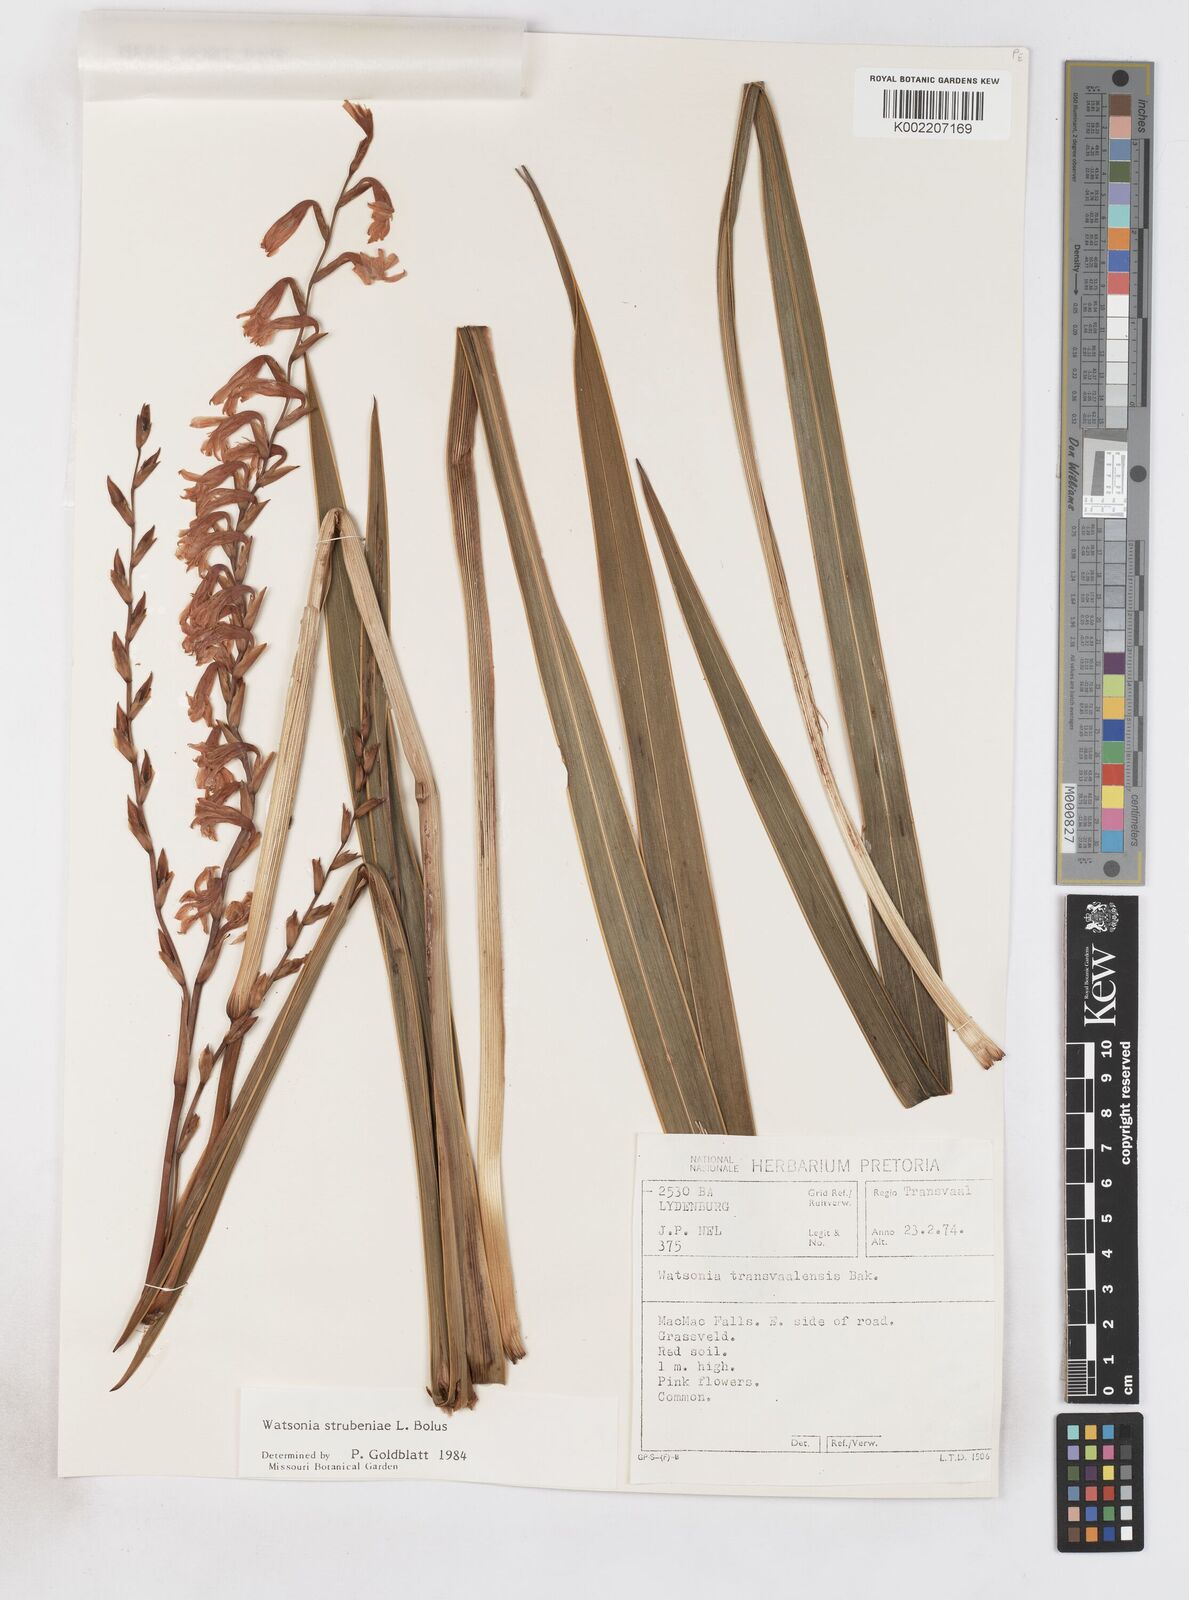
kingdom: Plantae
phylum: Tracheophyta
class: Liliopsida
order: Asparagales
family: Iridaceae
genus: Watsonia
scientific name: Watsonia strubeniae
